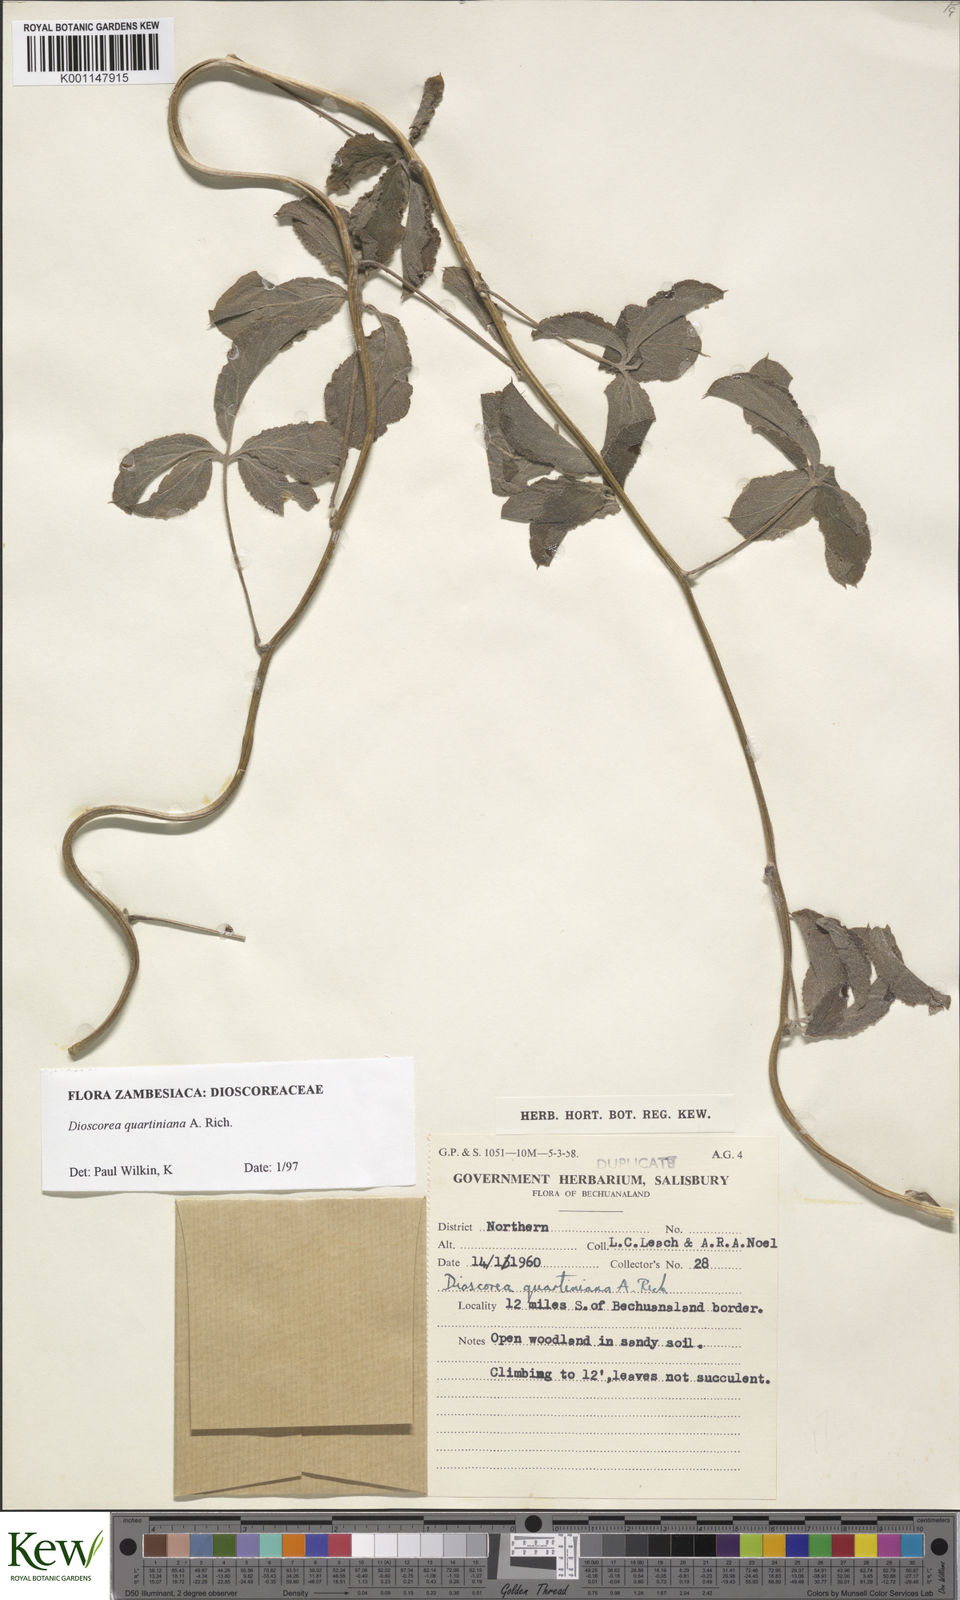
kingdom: Plantae
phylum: Tracheophyta
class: Liliopsida
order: Dioscoreales
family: Dioscoreaceae
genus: Dioscorea
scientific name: Dioscorea quartiniana
